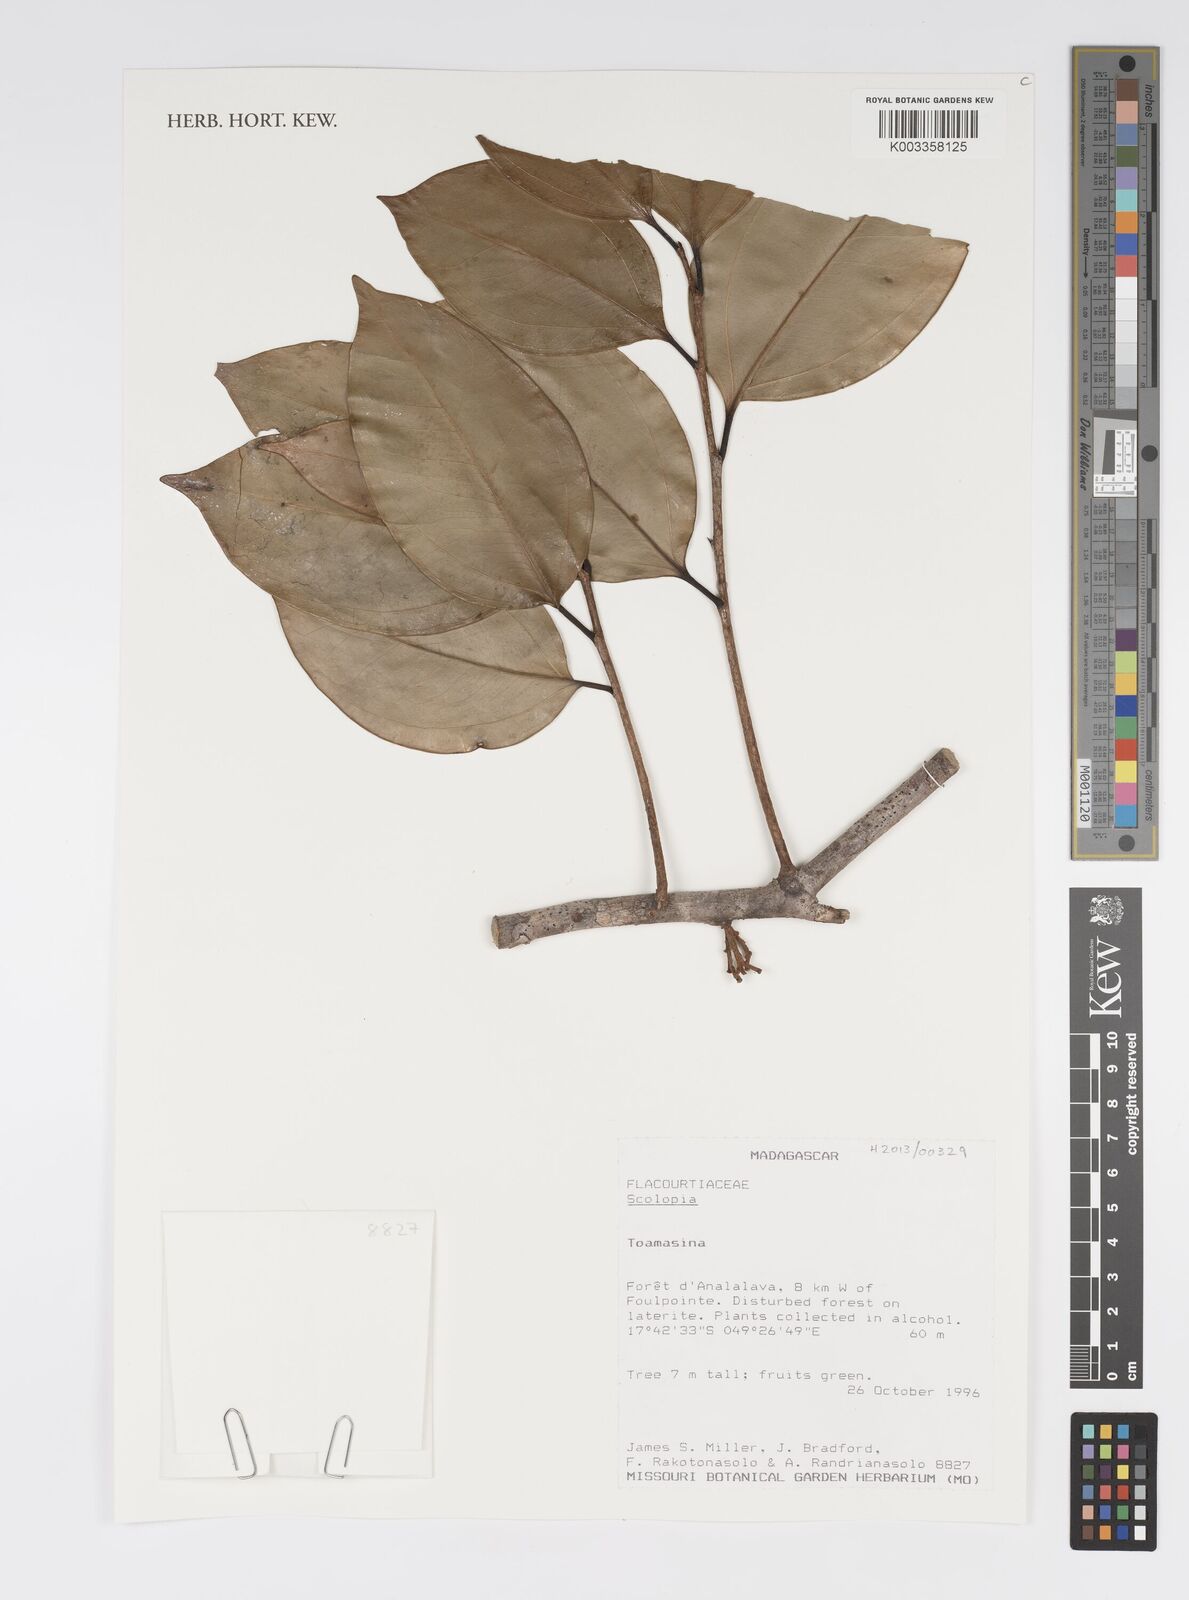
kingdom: Plantae
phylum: Tracheophyta
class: Magnoliopsida
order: Malpighiales
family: Salicaceae
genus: Scolopia
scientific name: Scolopia
